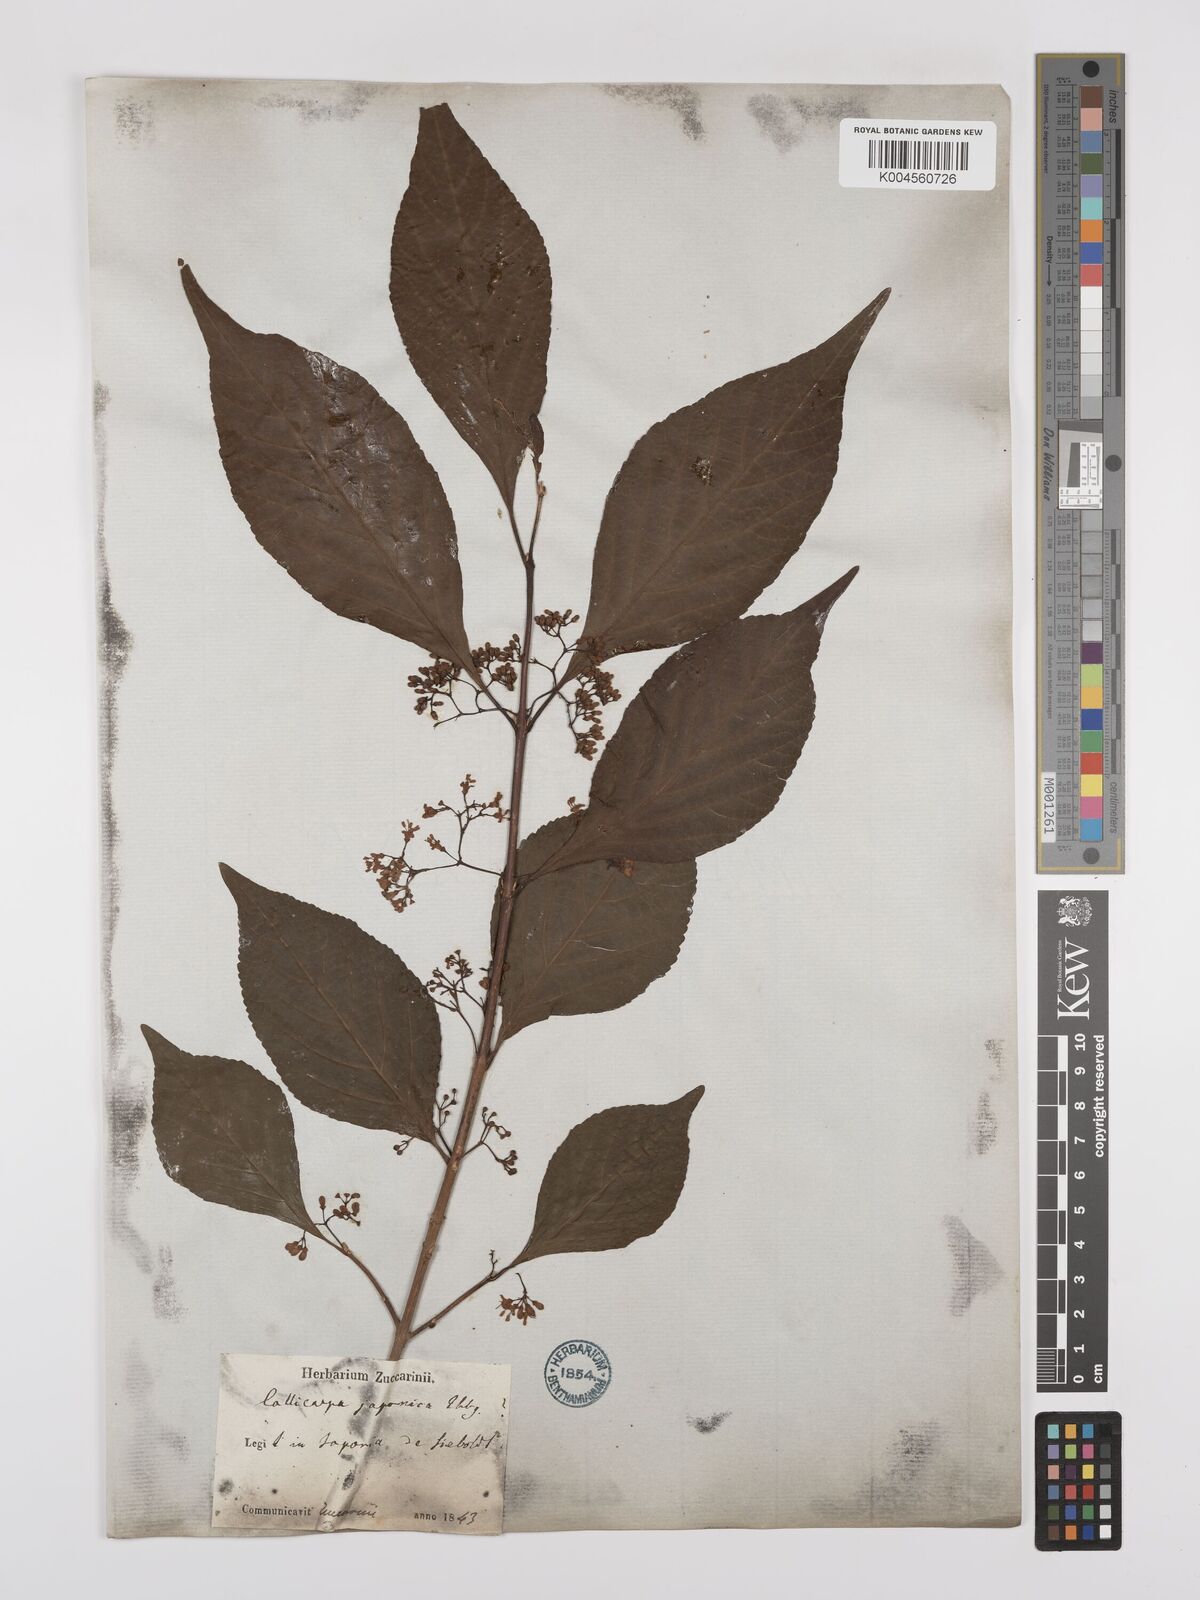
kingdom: Plantae
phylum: Tracheophyta
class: Magnoliopsida
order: Lamiales
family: Lamiaceae
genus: Callicarpa
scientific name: Callicarpa japonica
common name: Japanese beauty-berry
